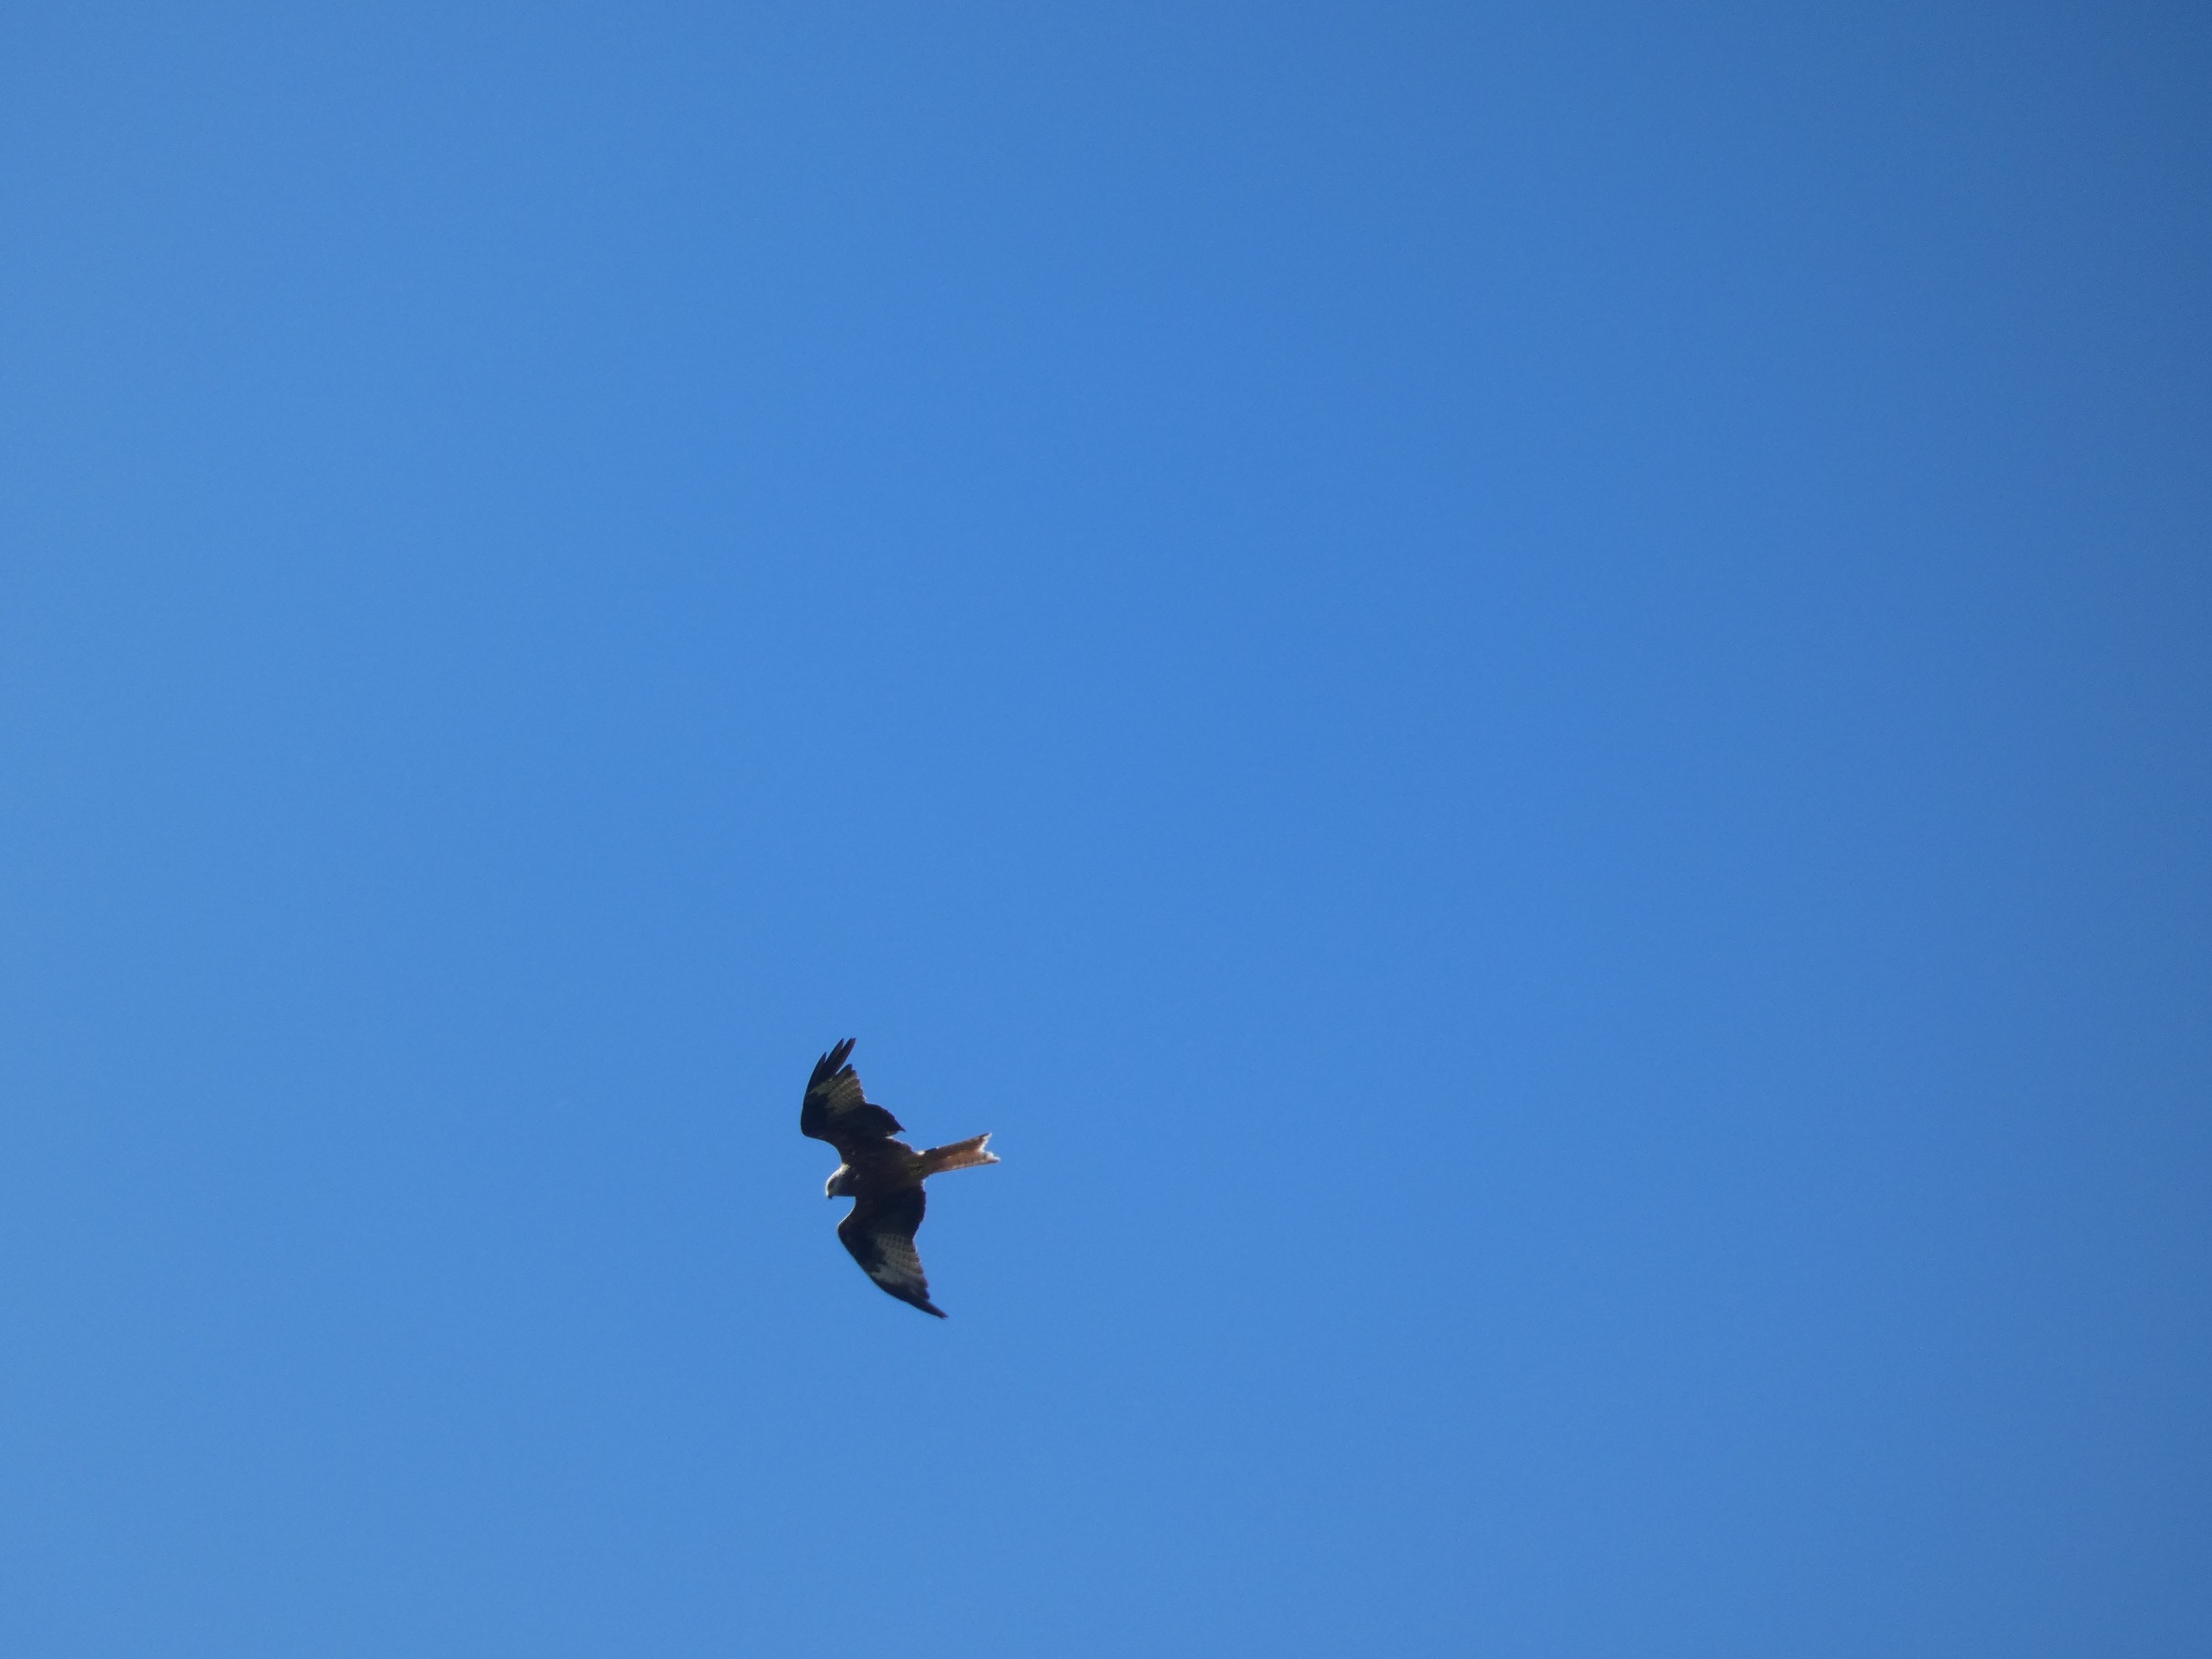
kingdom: Animalia
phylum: Chordata
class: Aves
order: Accipitriformes
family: Accipitridae
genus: Milvus
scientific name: Milvus milvus
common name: Rød glente
